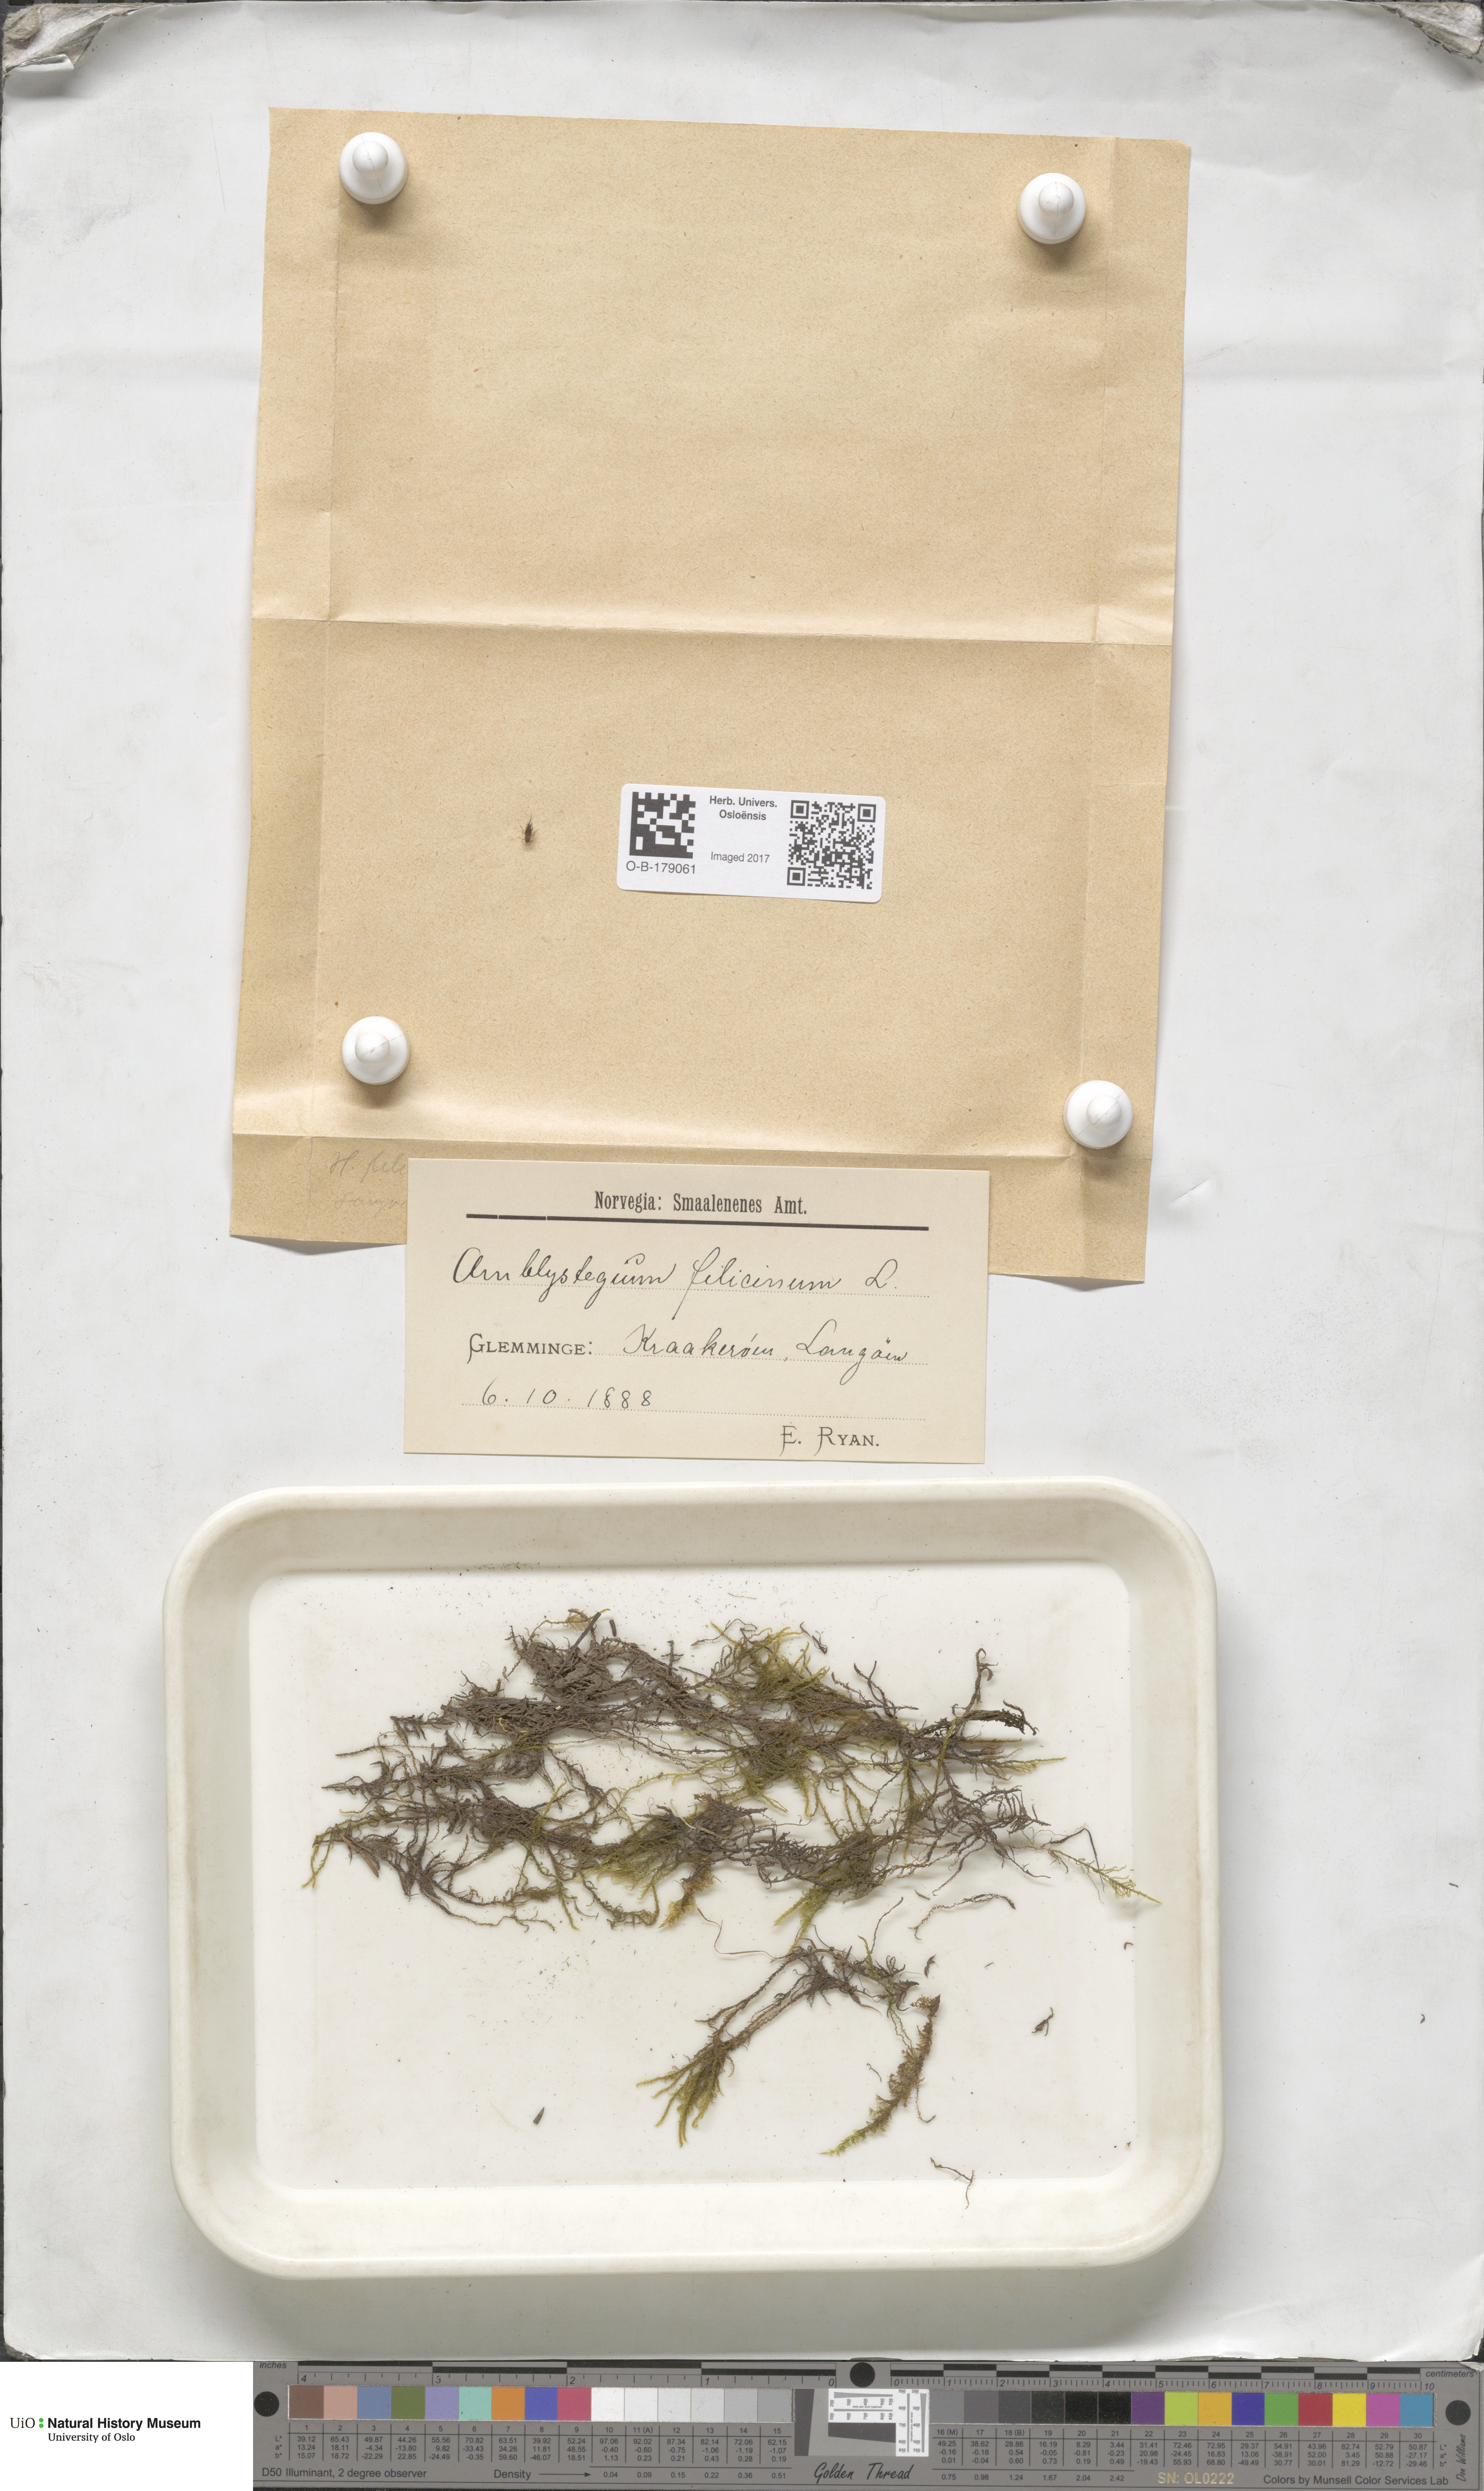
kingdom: Plantae
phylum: Bryophyta
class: Bryopsida
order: Hypnales
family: Amblystegiaceae
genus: Cratoneuron
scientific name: Cratoneuron filicinum
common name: Fern-leaved hook moss
